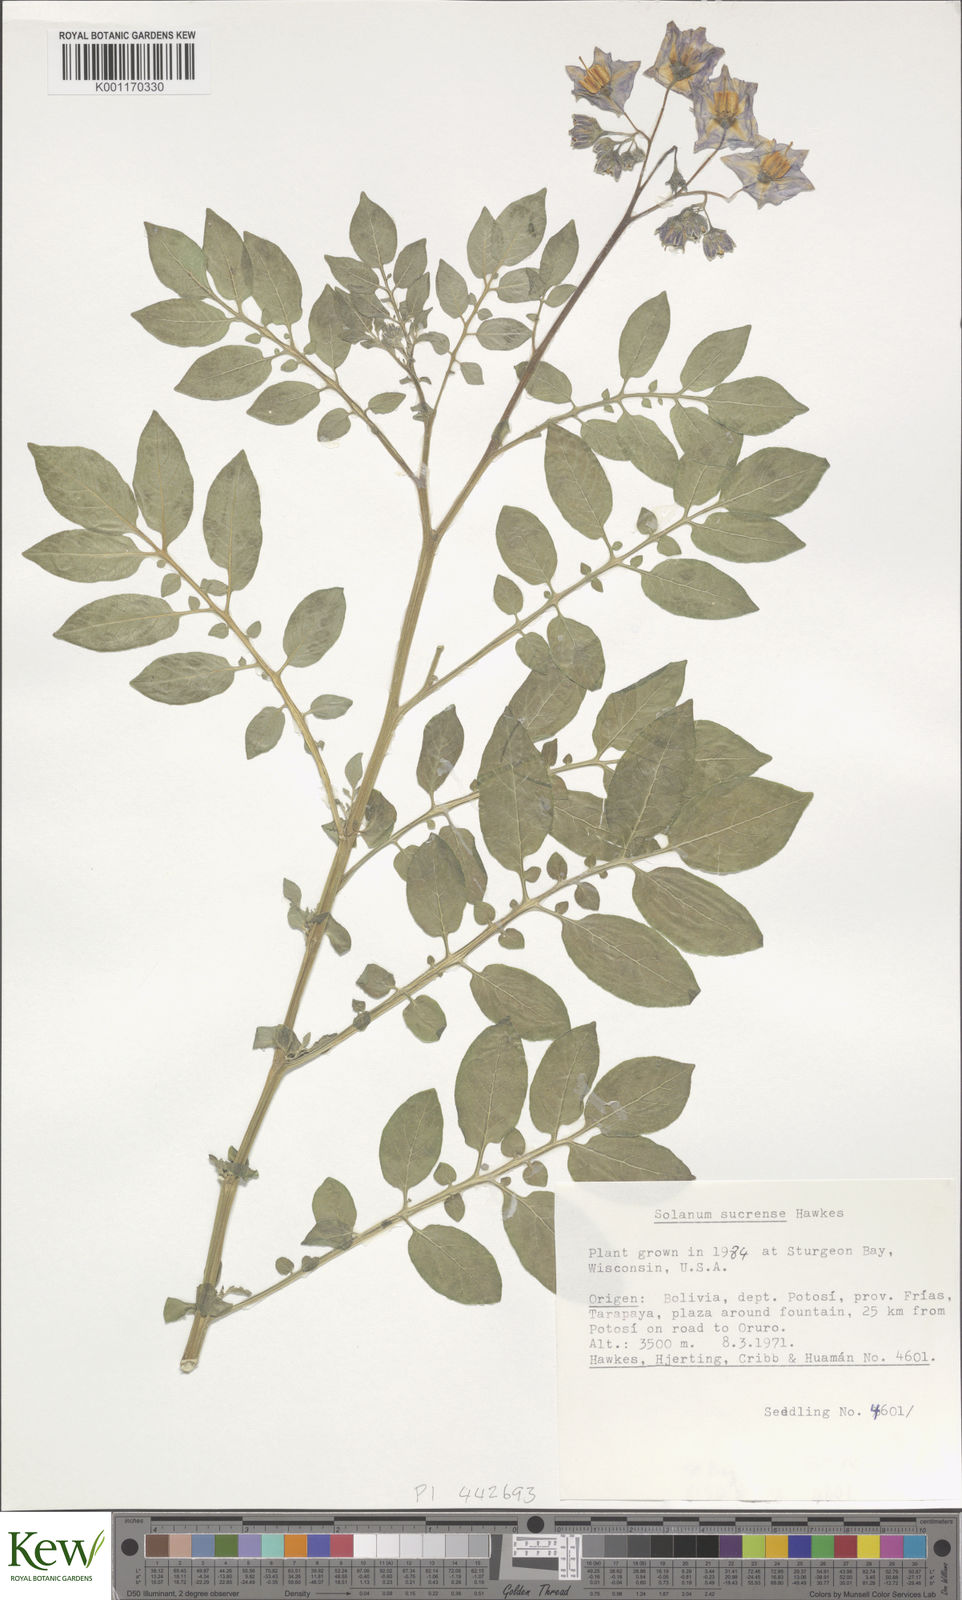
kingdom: Plantae
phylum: Tracheophyta
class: Magnoliopsida
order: Solanales
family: Solanaceae
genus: Solanum
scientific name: Solanum brevicaule
